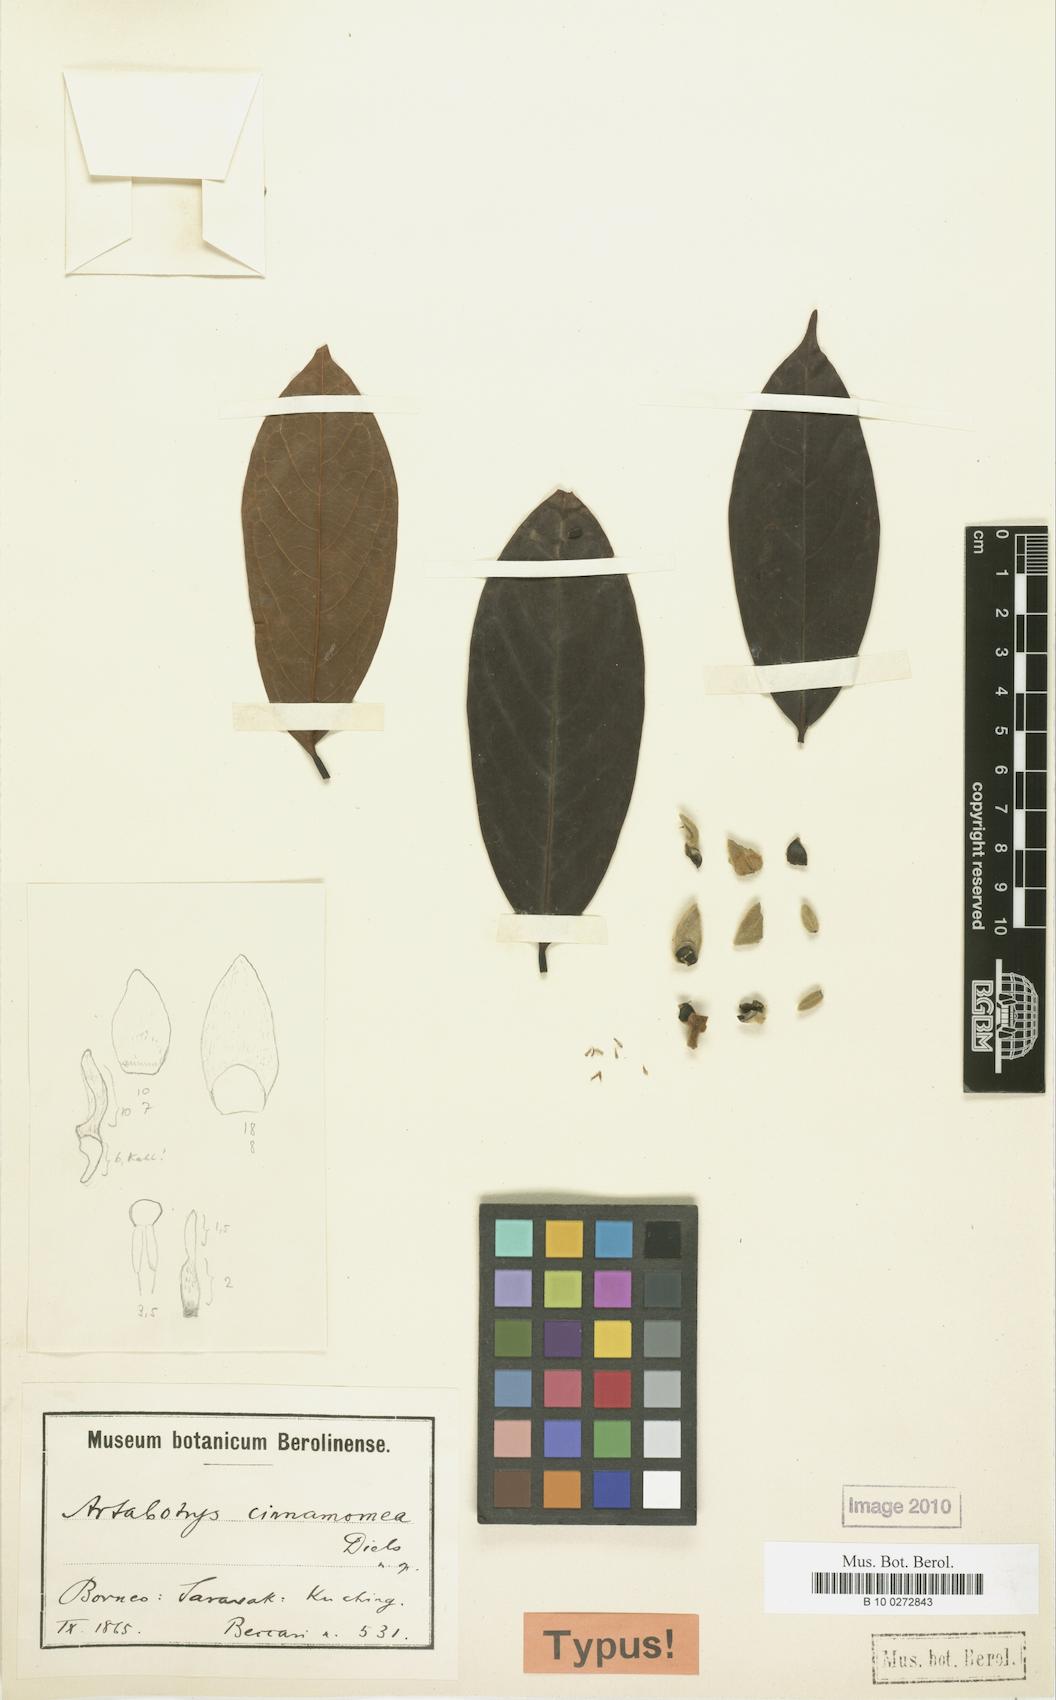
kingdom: Plantae
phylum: Tracheophyta
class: Magnoliopsida
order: Magnoliales
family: Annonaceae
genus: Artabotrys
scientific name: Artabotrys hirtipes
